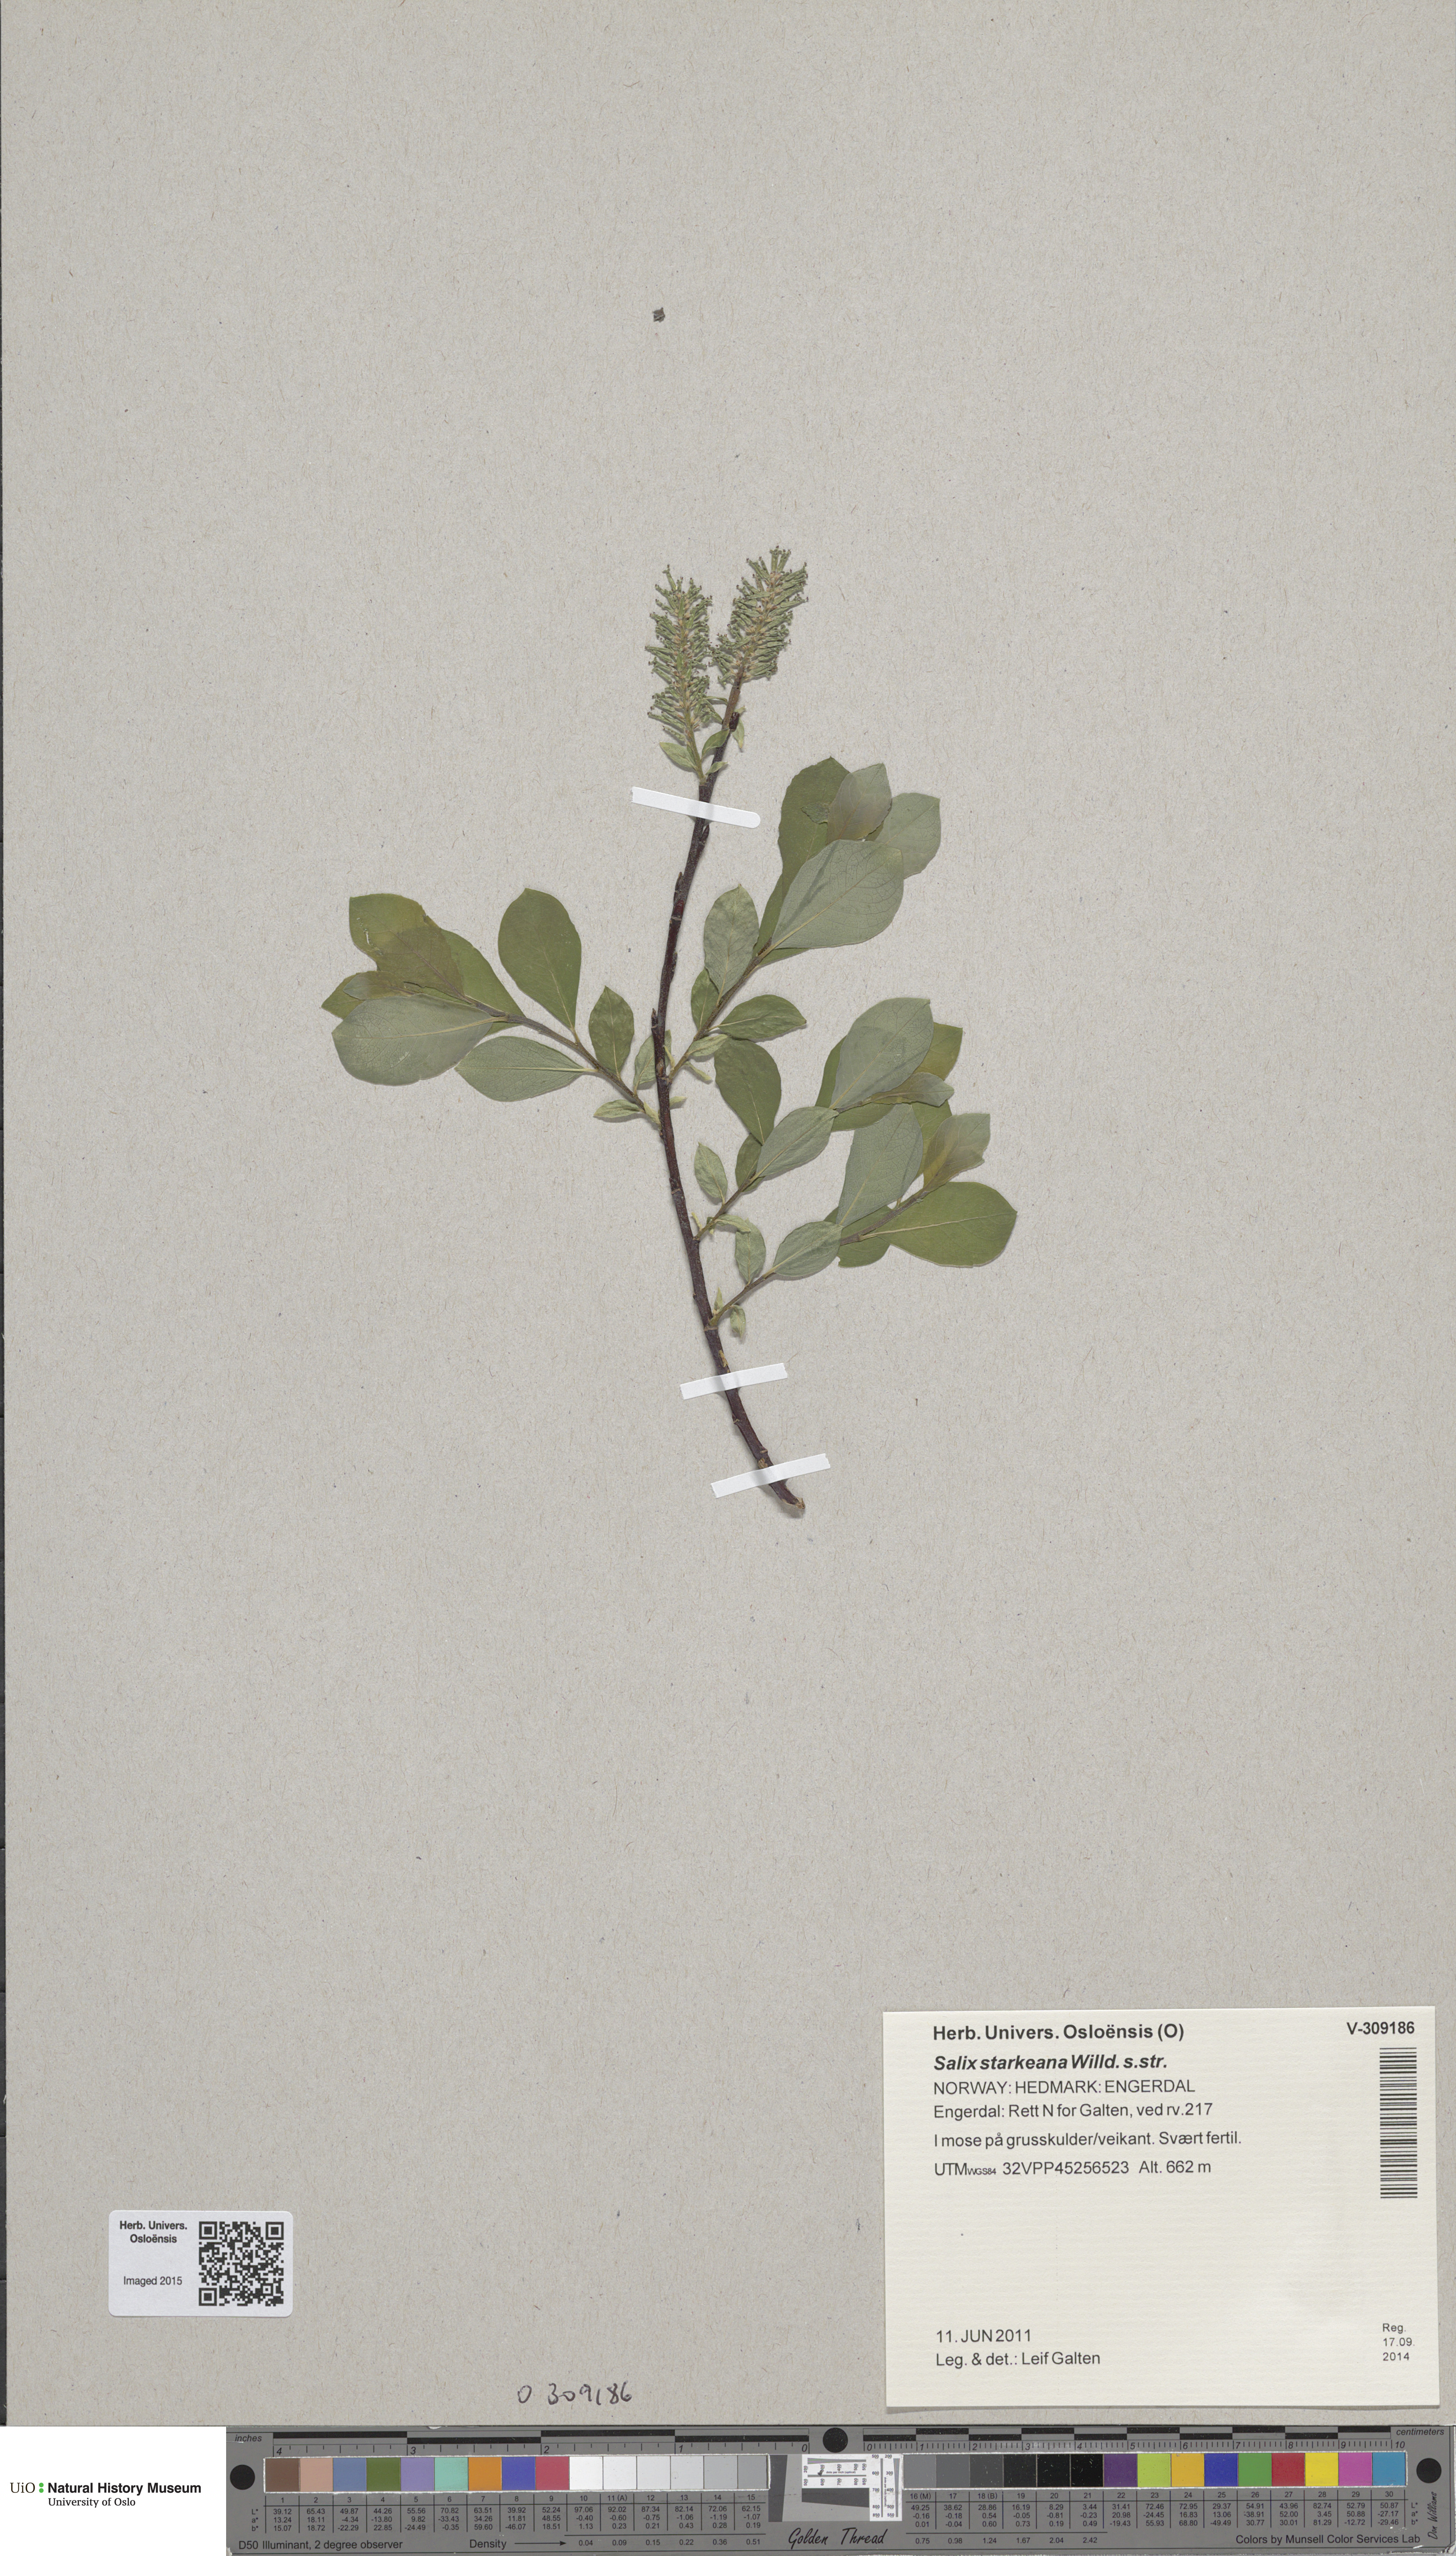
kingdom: Plantae
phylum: Tracheophyta
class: Magnoliopsida
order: Malpighiales
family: Salicaceae
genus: Salix
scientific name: Salix starkeana
